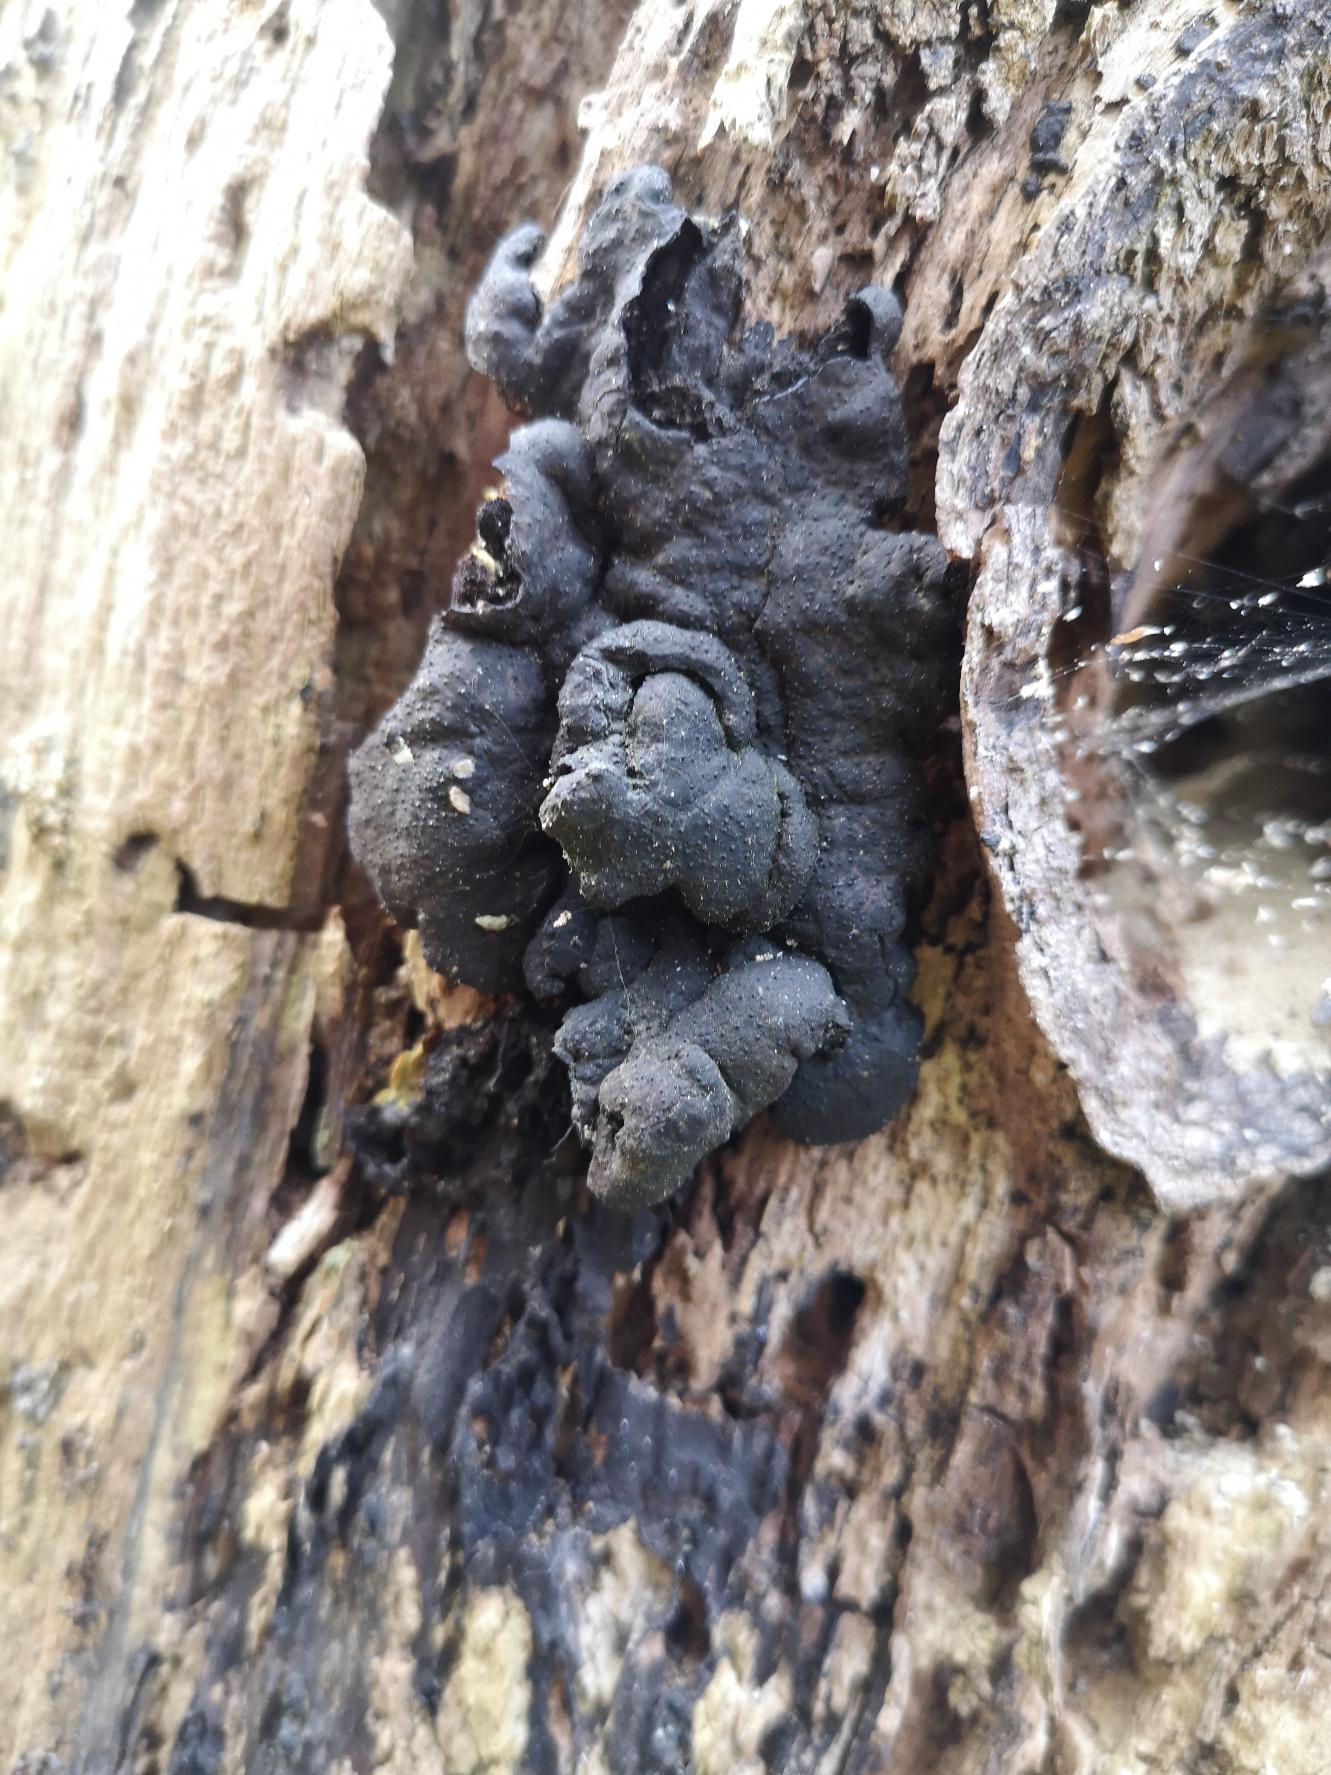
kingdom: Fungi
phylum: Ascomycota
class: Sordariomycetes
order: Xylariales
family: Xylariaceae
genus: Kretzschmaria
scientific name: Kretzschmaria deusta
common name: Stor kulsvamp
